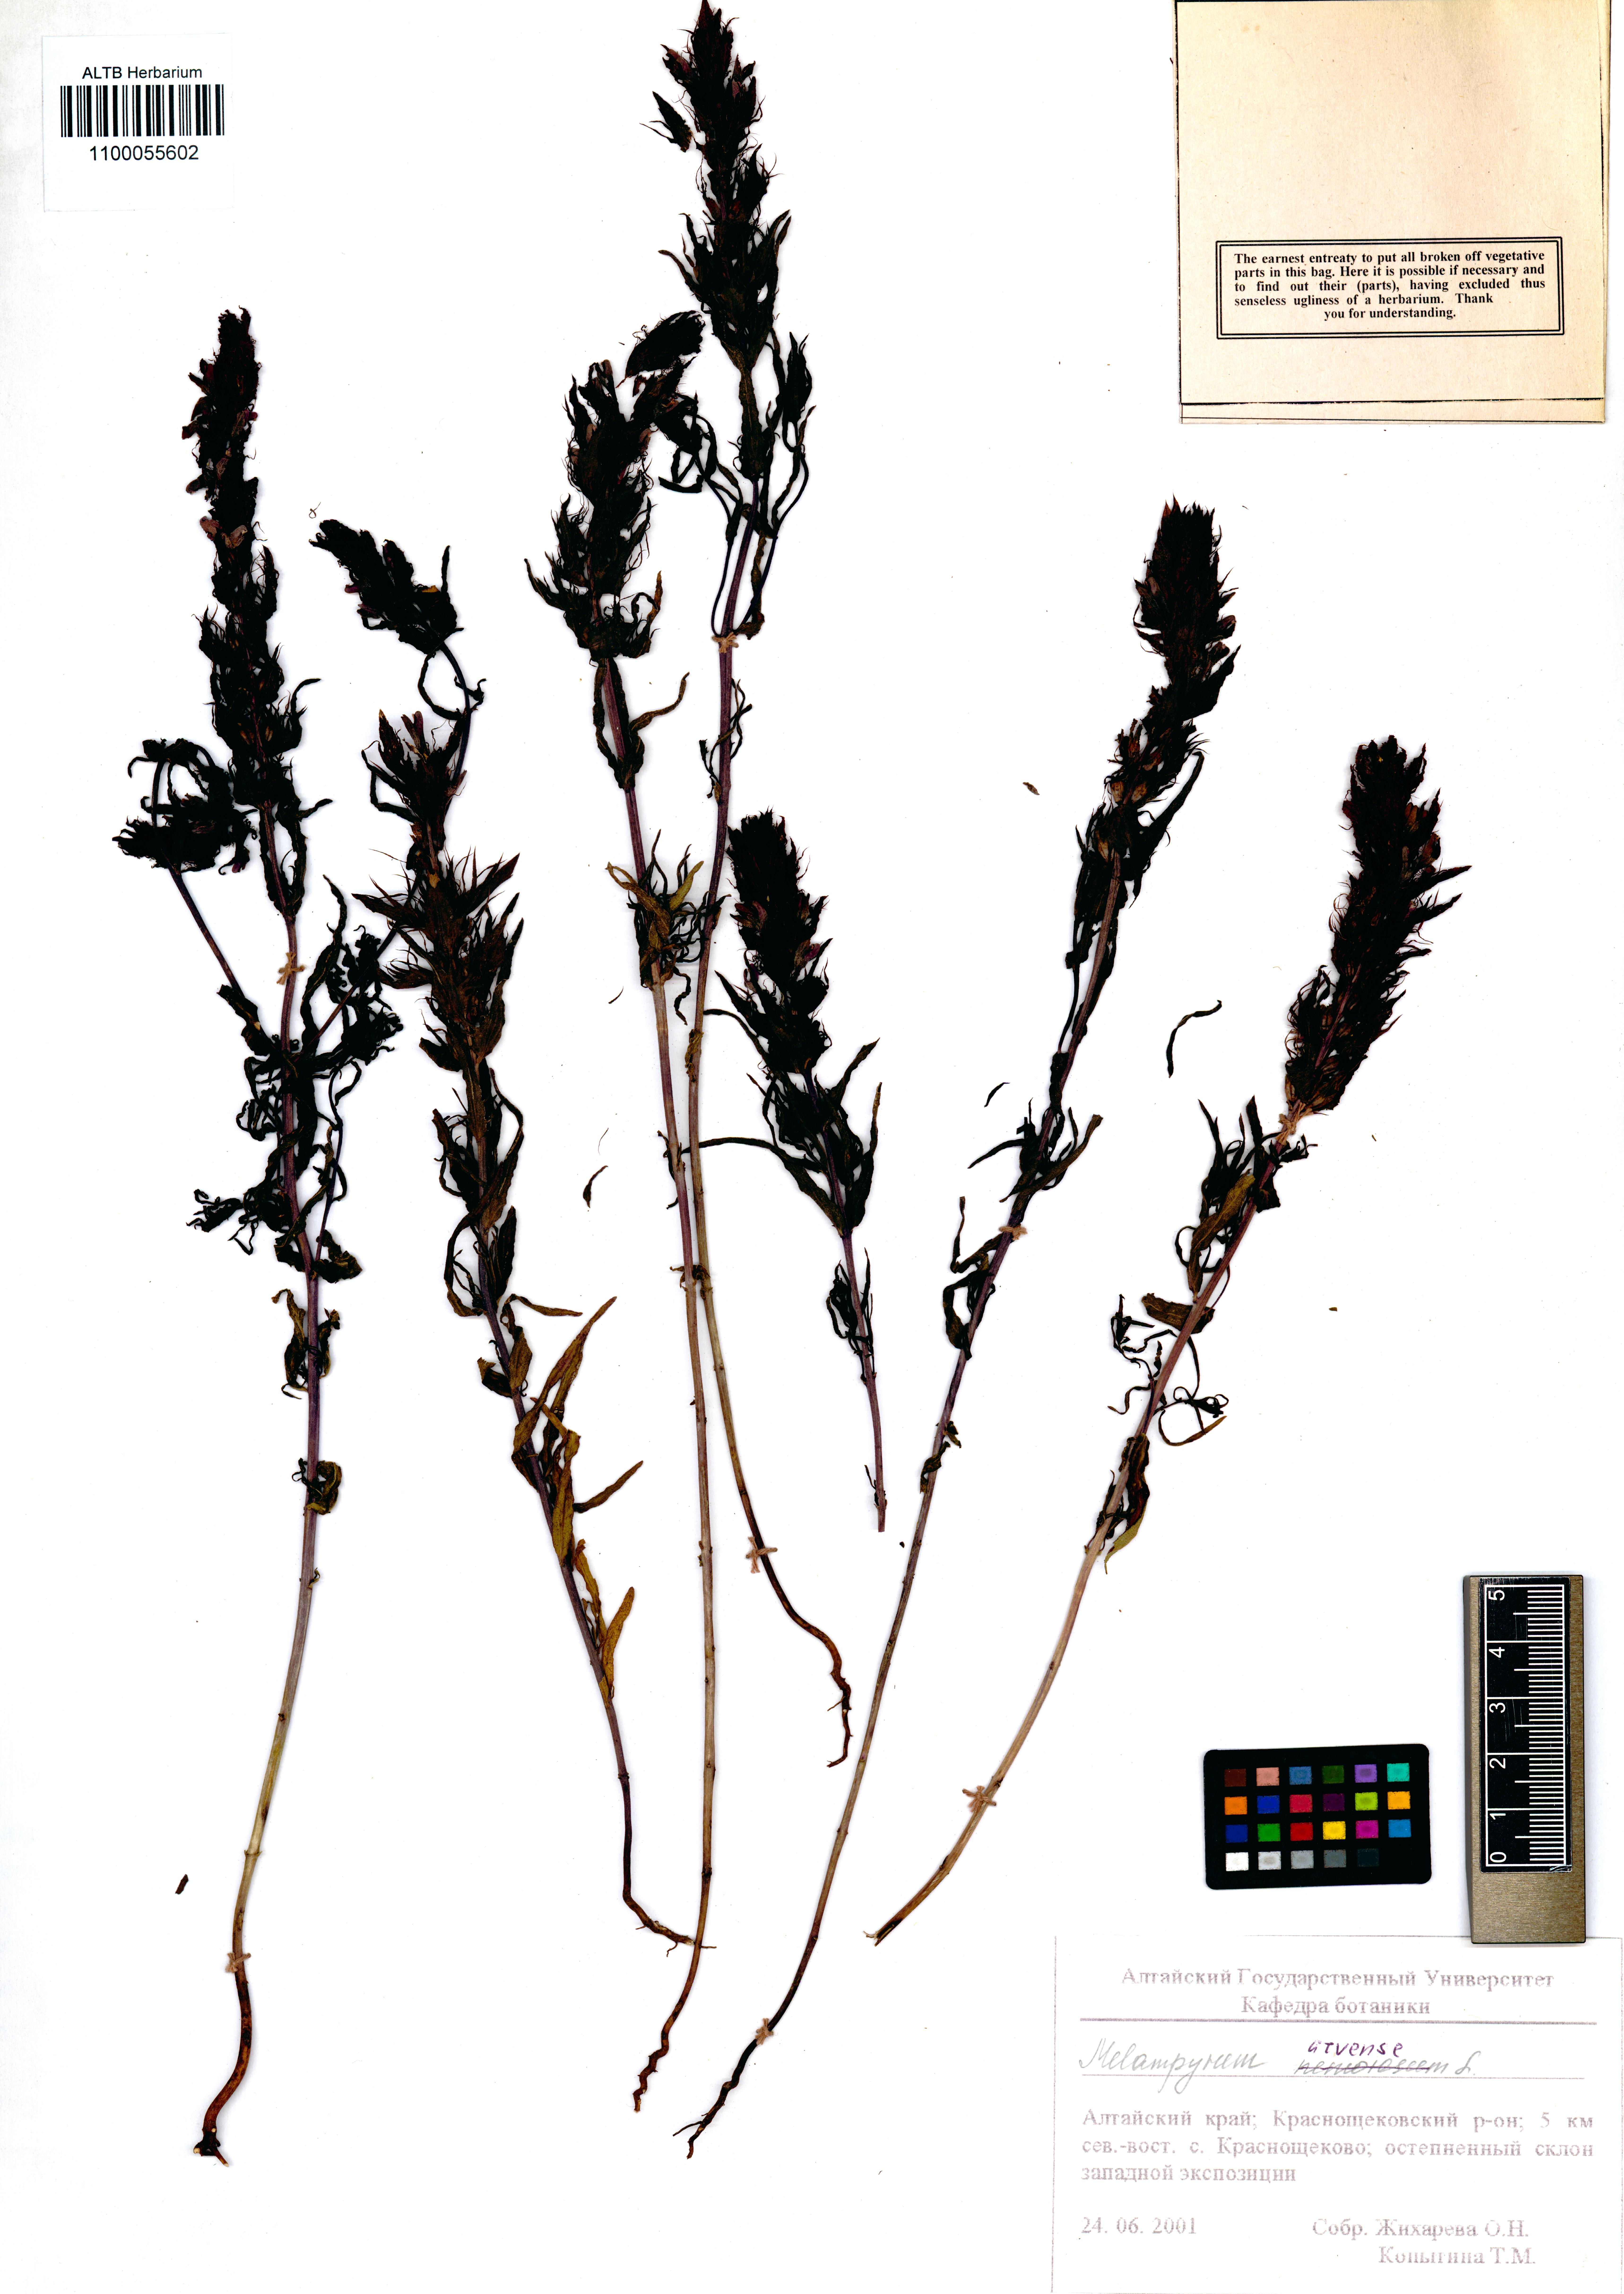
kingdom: Plantae
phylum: Tracheophyta
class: Magnoliopsida
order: Lamiales
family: Orobanchaceae
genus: Melampyrum
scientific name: Melampyrum arvense
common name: Field cow-wheat
